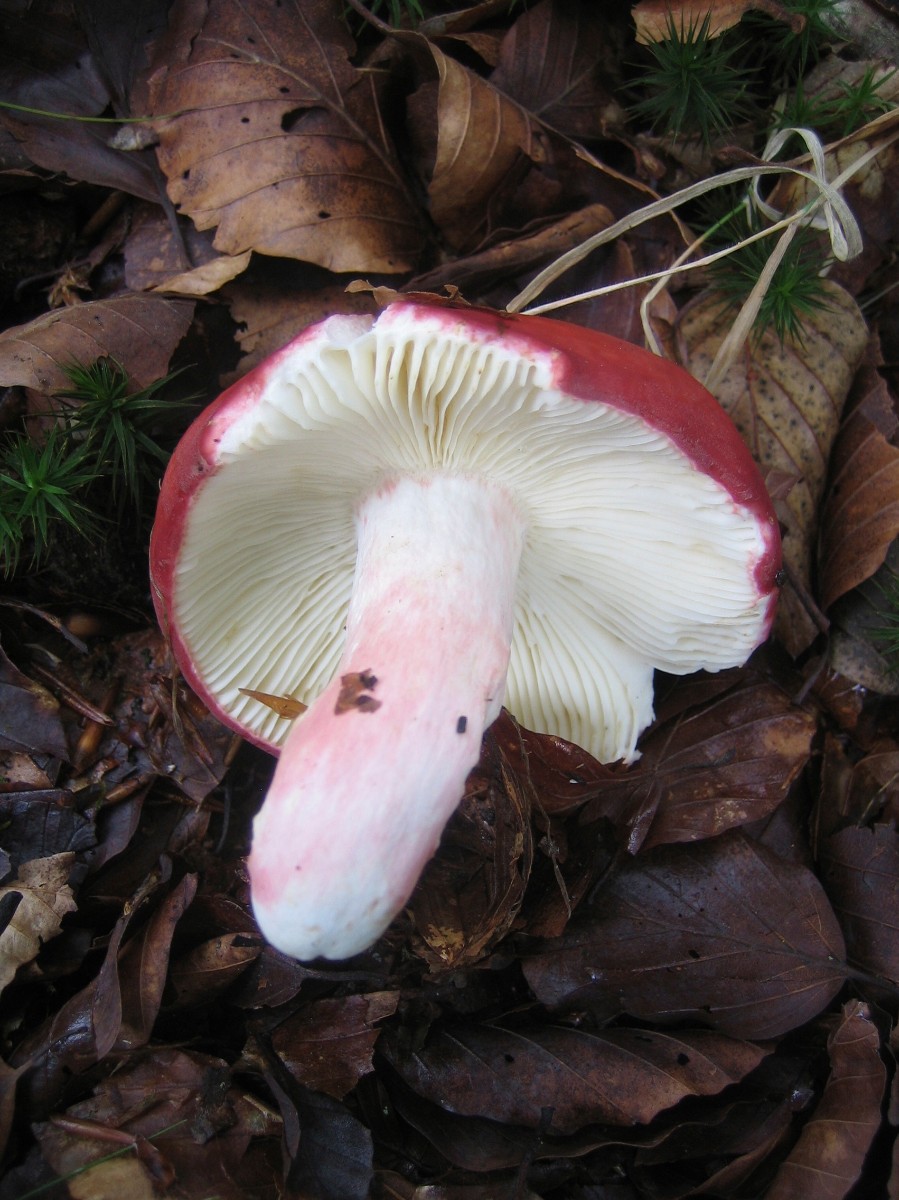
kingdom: Fungi
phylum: Basidiomycota
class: Agaricomycetes
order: Russulales
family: Russulaceae
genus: Russula
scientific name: Russula rosea
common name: fastkødet skørhat
